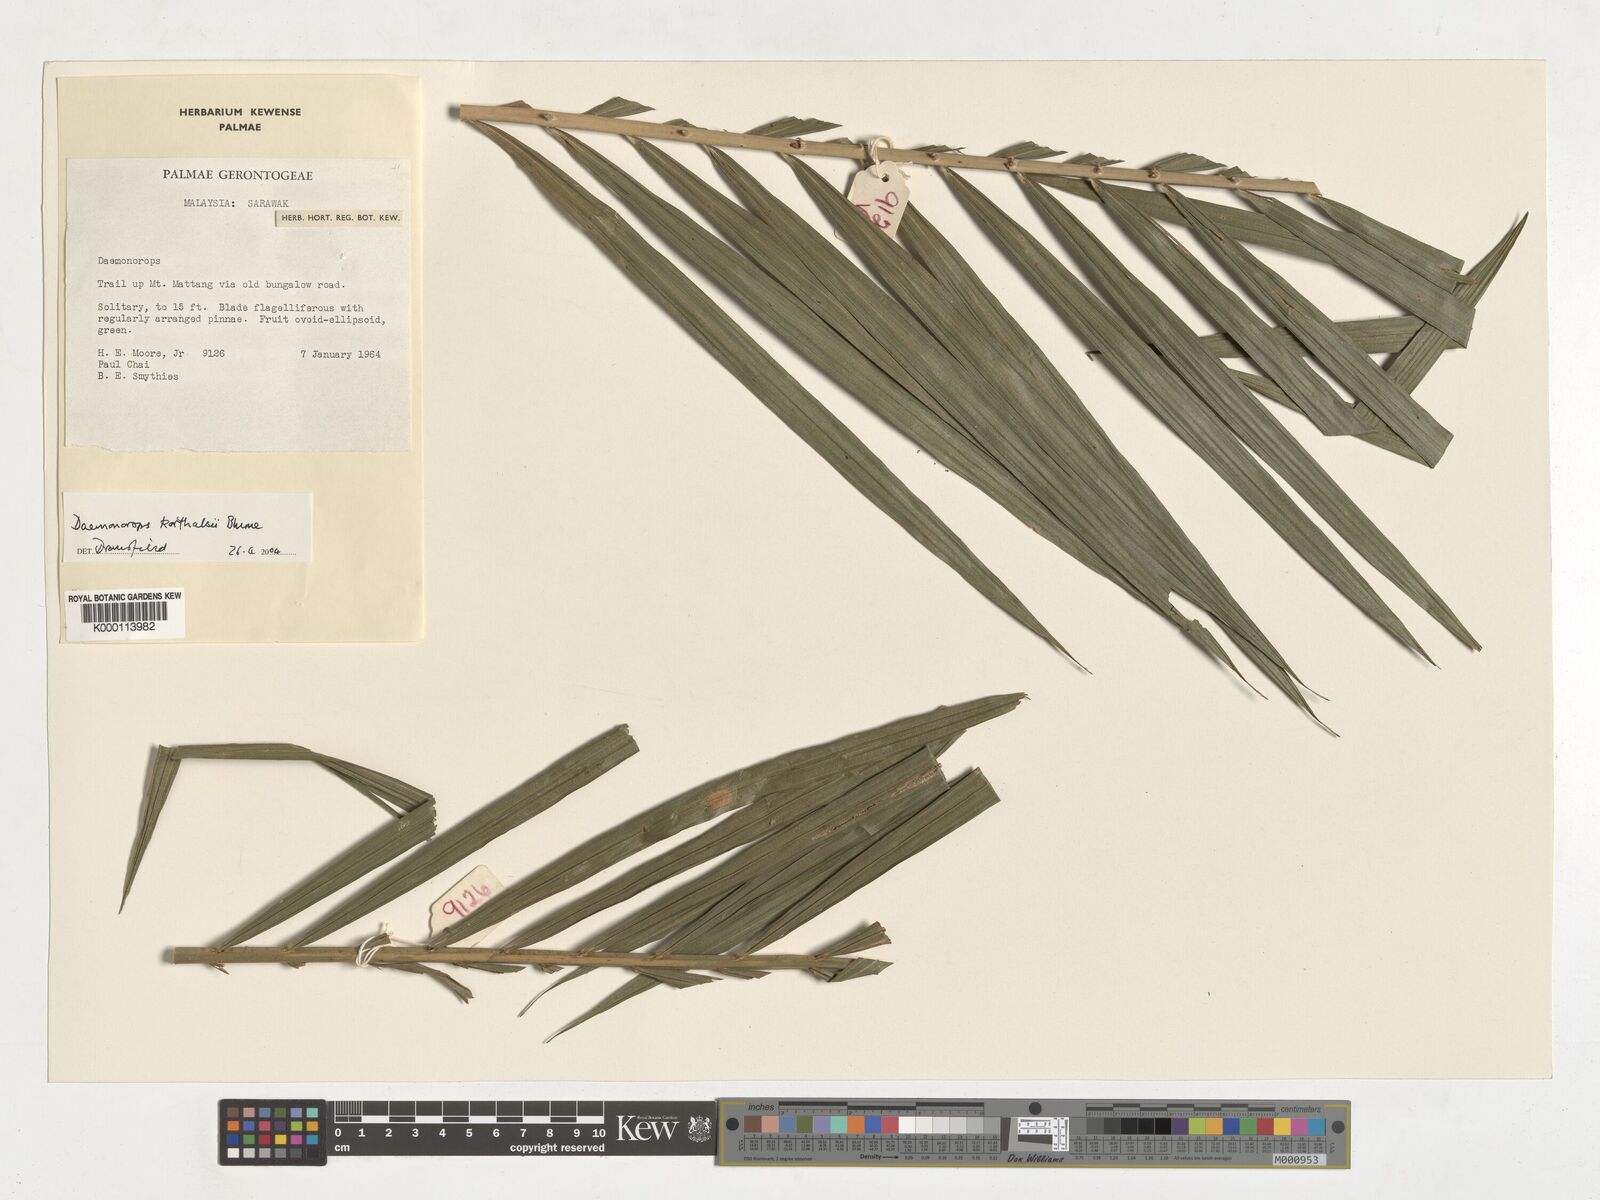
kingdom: Plantae
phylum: Tracheophyta
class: Liliopsida
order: Arecales
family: Arecaceae
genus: Calamus
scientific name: Calamus hirsutus
